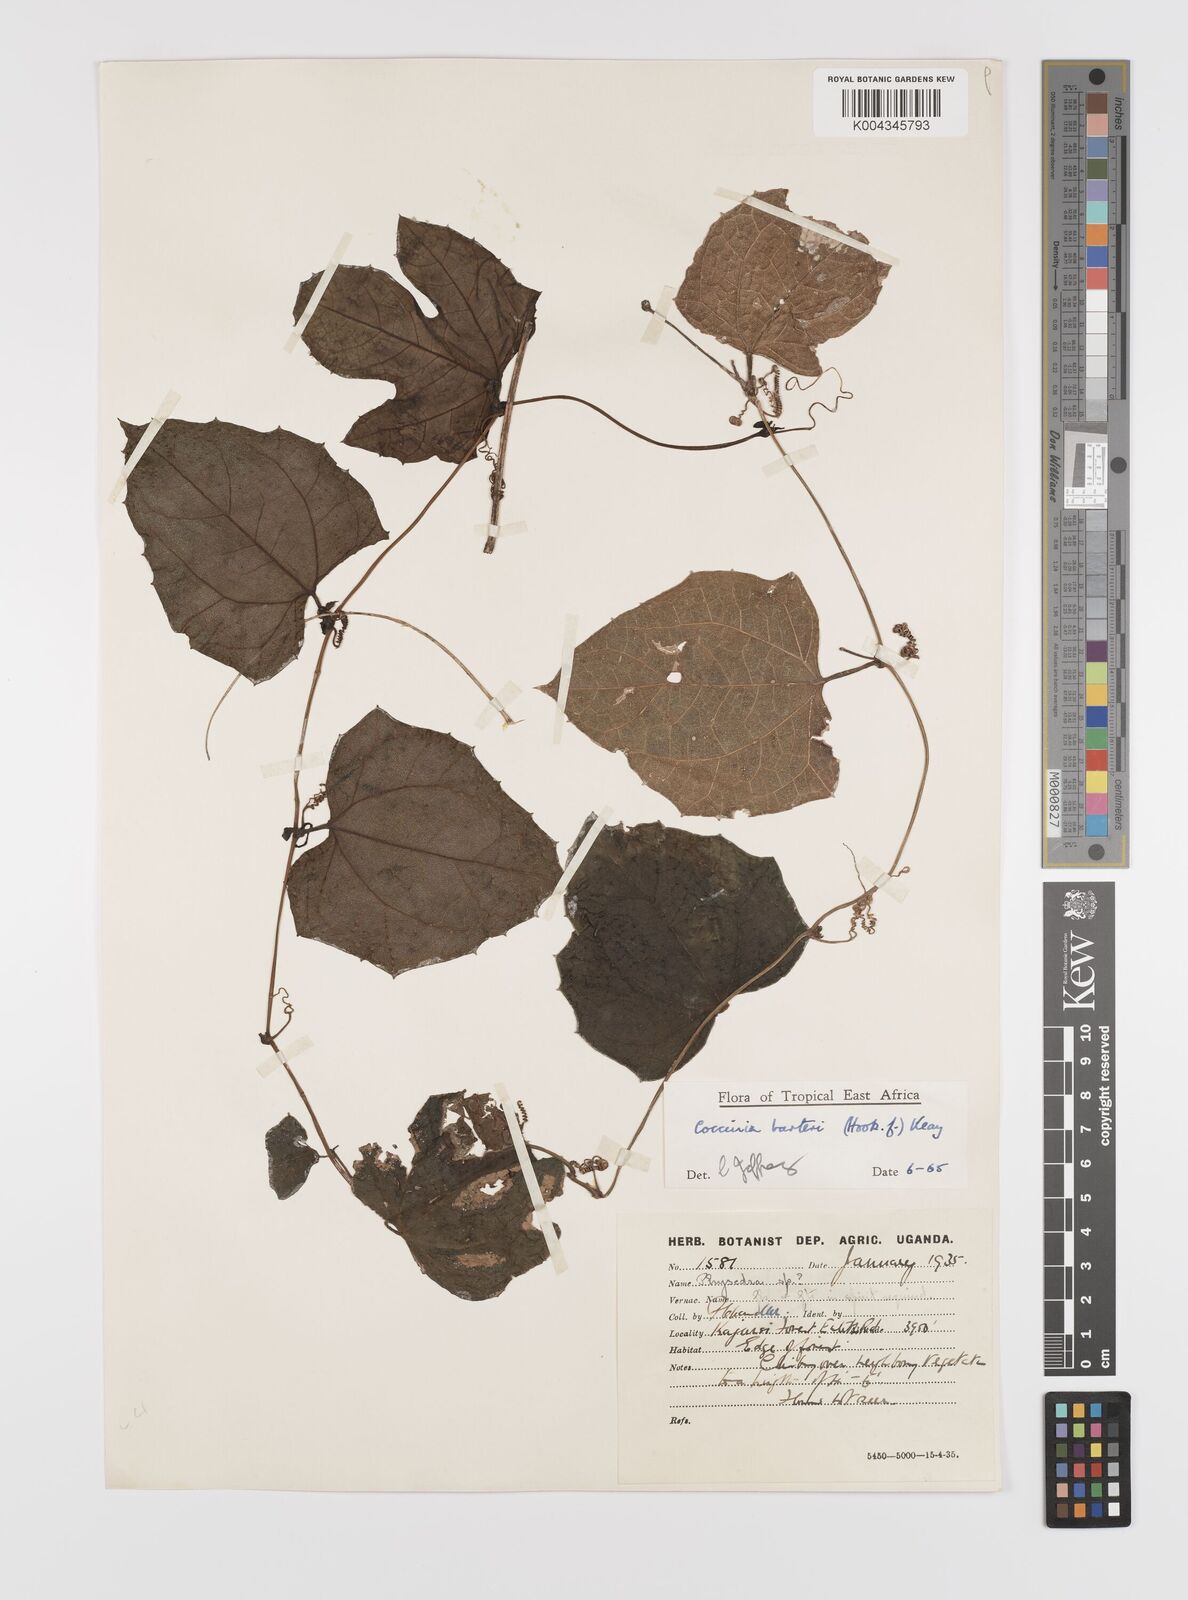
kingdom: Plantae
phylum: Tracheophyta
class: Magnoliopsida
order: Cucurbitales
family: Cucurbitaceae
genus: Coccinia
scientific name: Coccinia barteri
